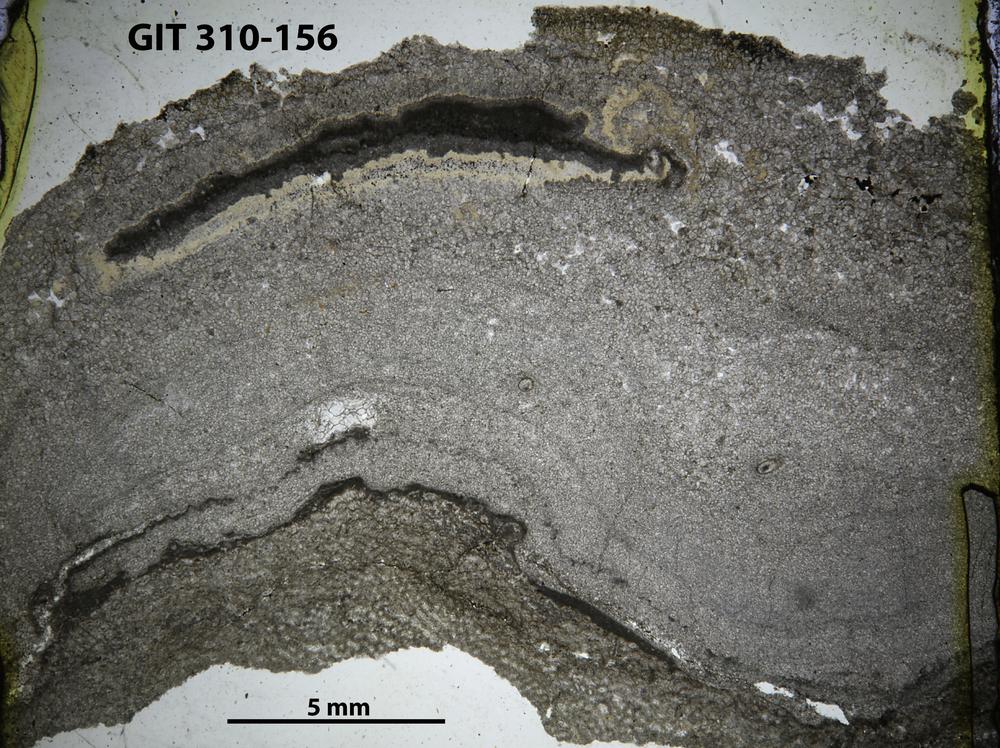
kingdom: Animalia
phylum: Porifera
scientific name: Porifera
